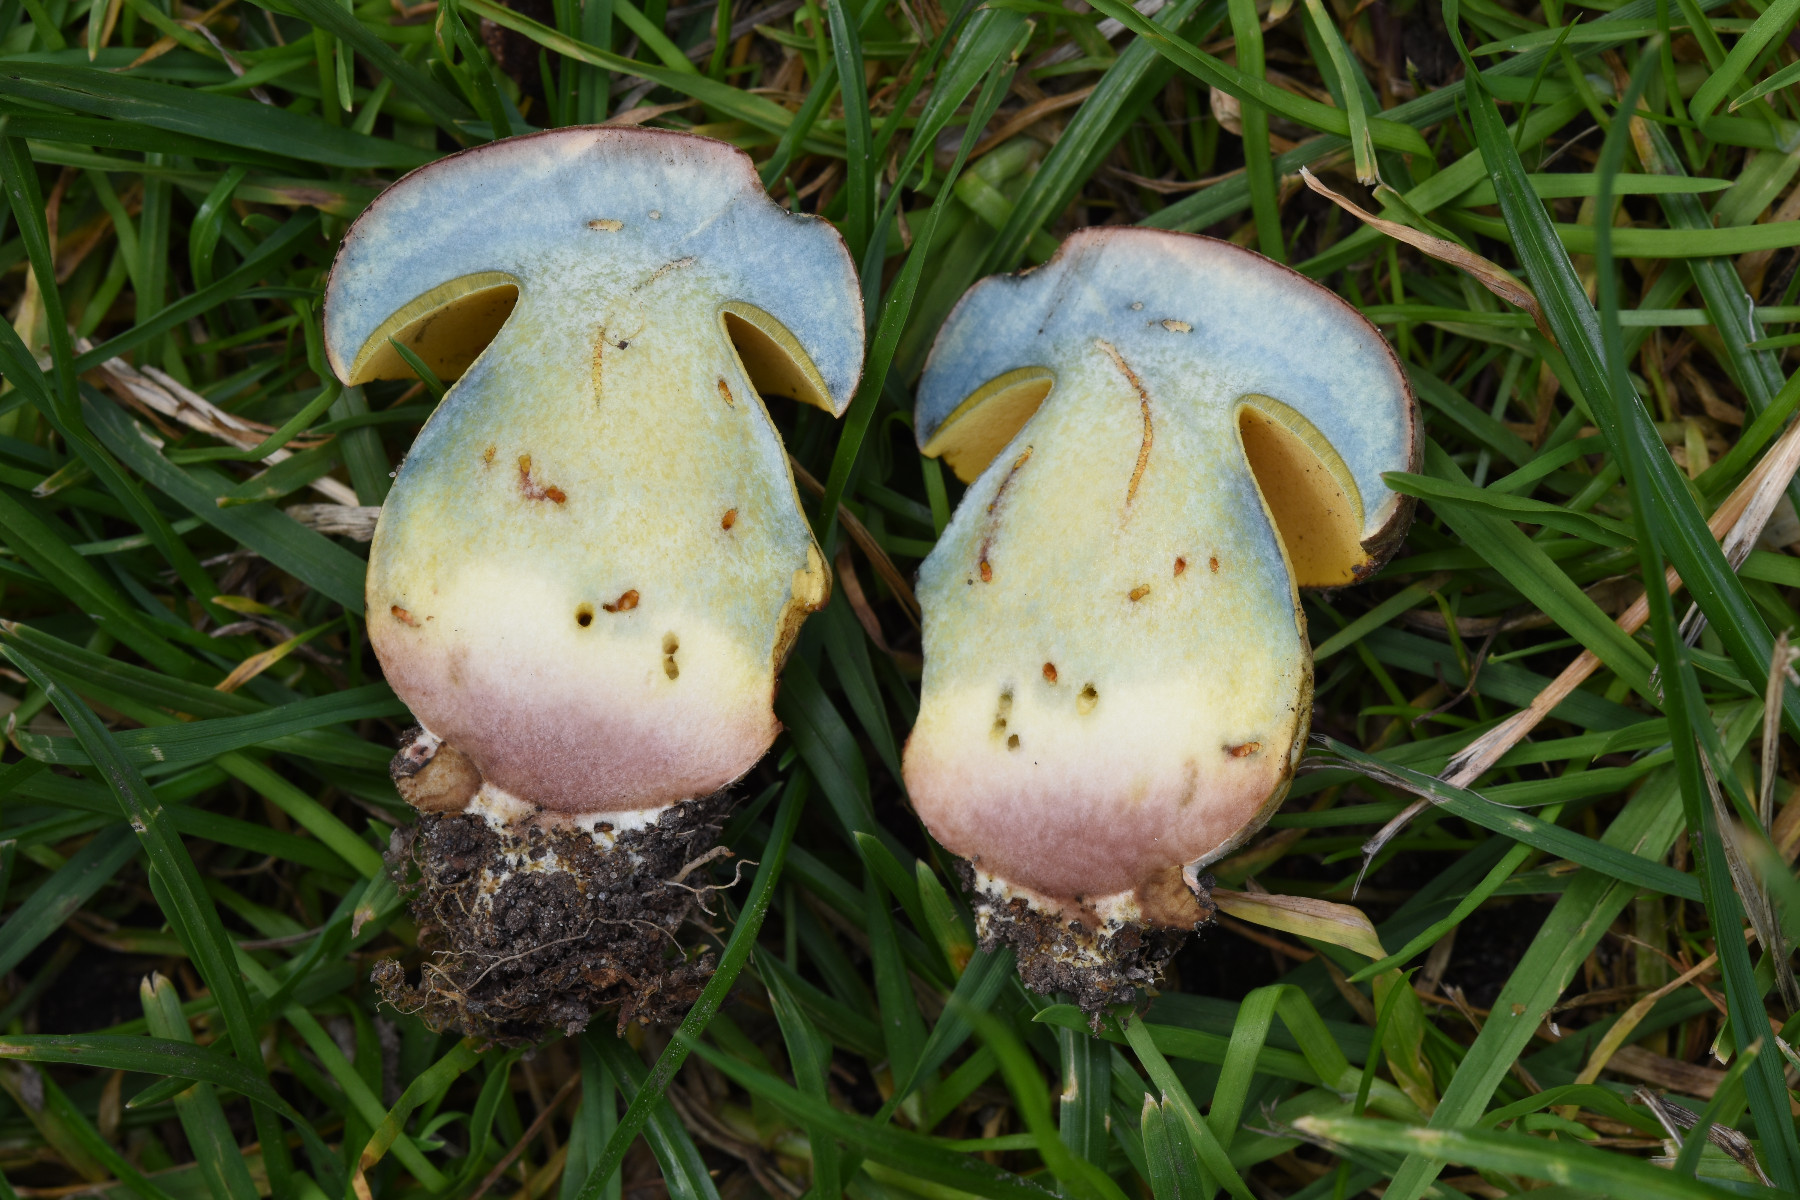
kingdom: Fungi
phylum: Basidiomycota
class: Agaricomycetes
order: Boletales
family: Boletaceae
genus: Butyriboletus
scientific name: Butyriboletus fechtneri
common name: sølvskinnende rørhat
